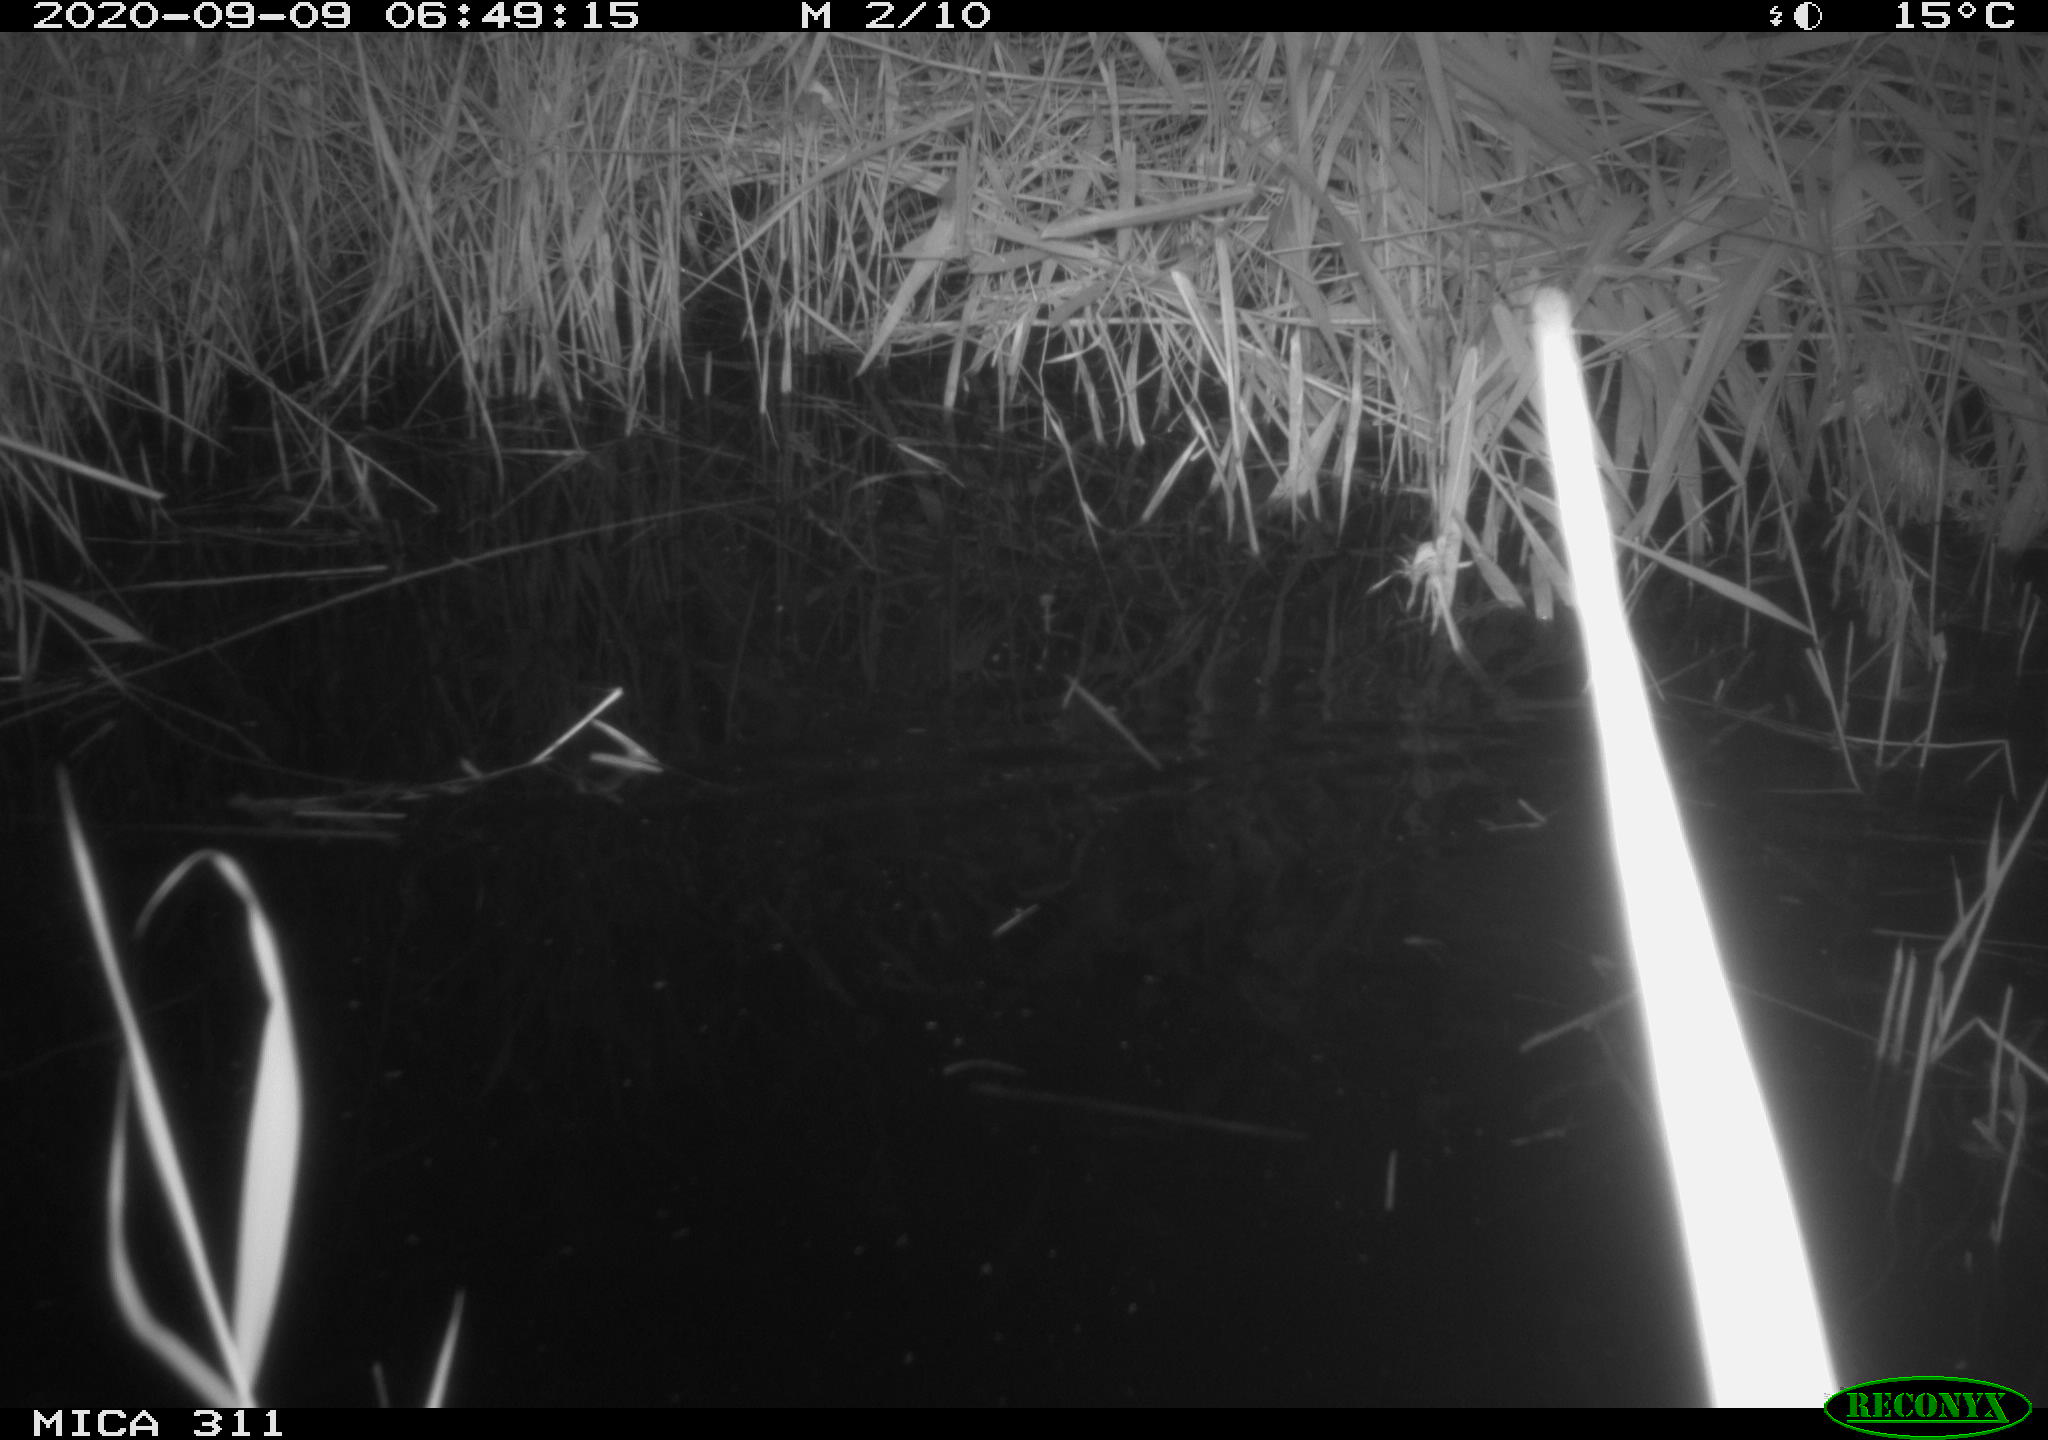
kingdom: Animalia
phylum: Chordata
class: Mammalia
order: Rodentia
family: Muridae
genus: Rattus
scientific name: Rattus norvegicus
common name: Brown rat
